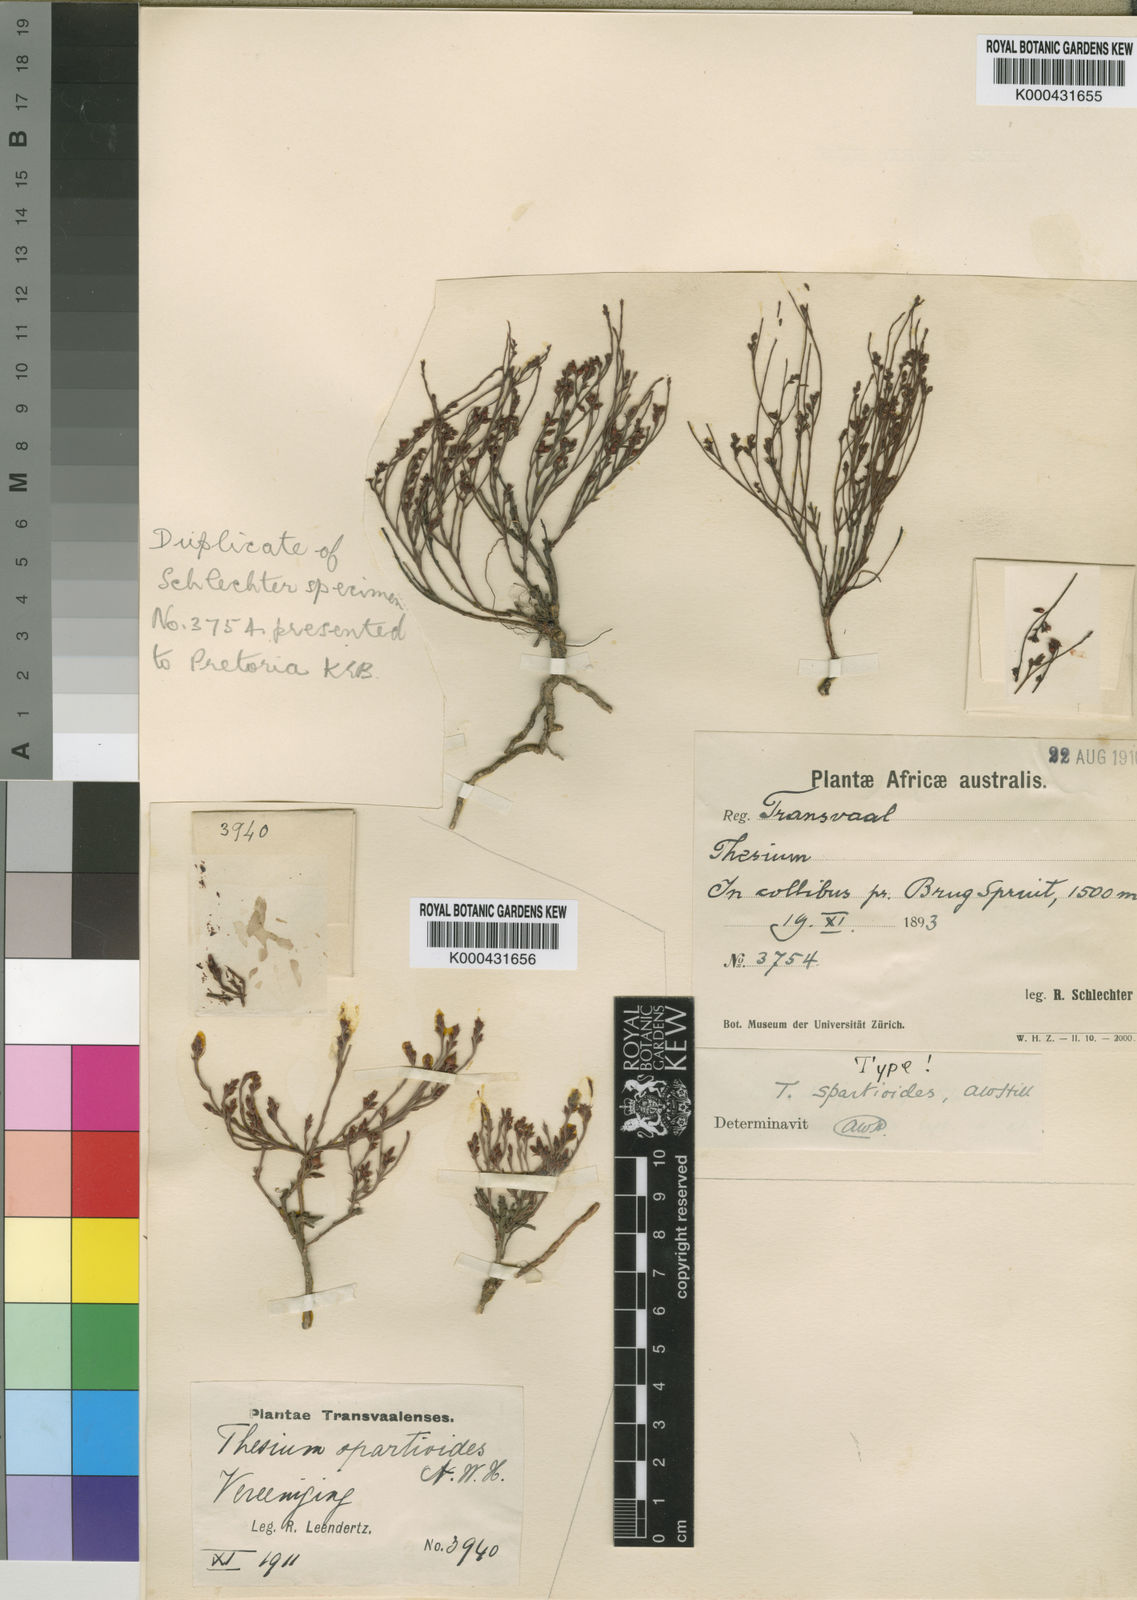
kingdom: Plantae
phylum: Tracheophyta
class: Magnoliopsida
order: Santalales
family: Thesiaceae
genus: Thesium
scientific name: Thesium spartioides
